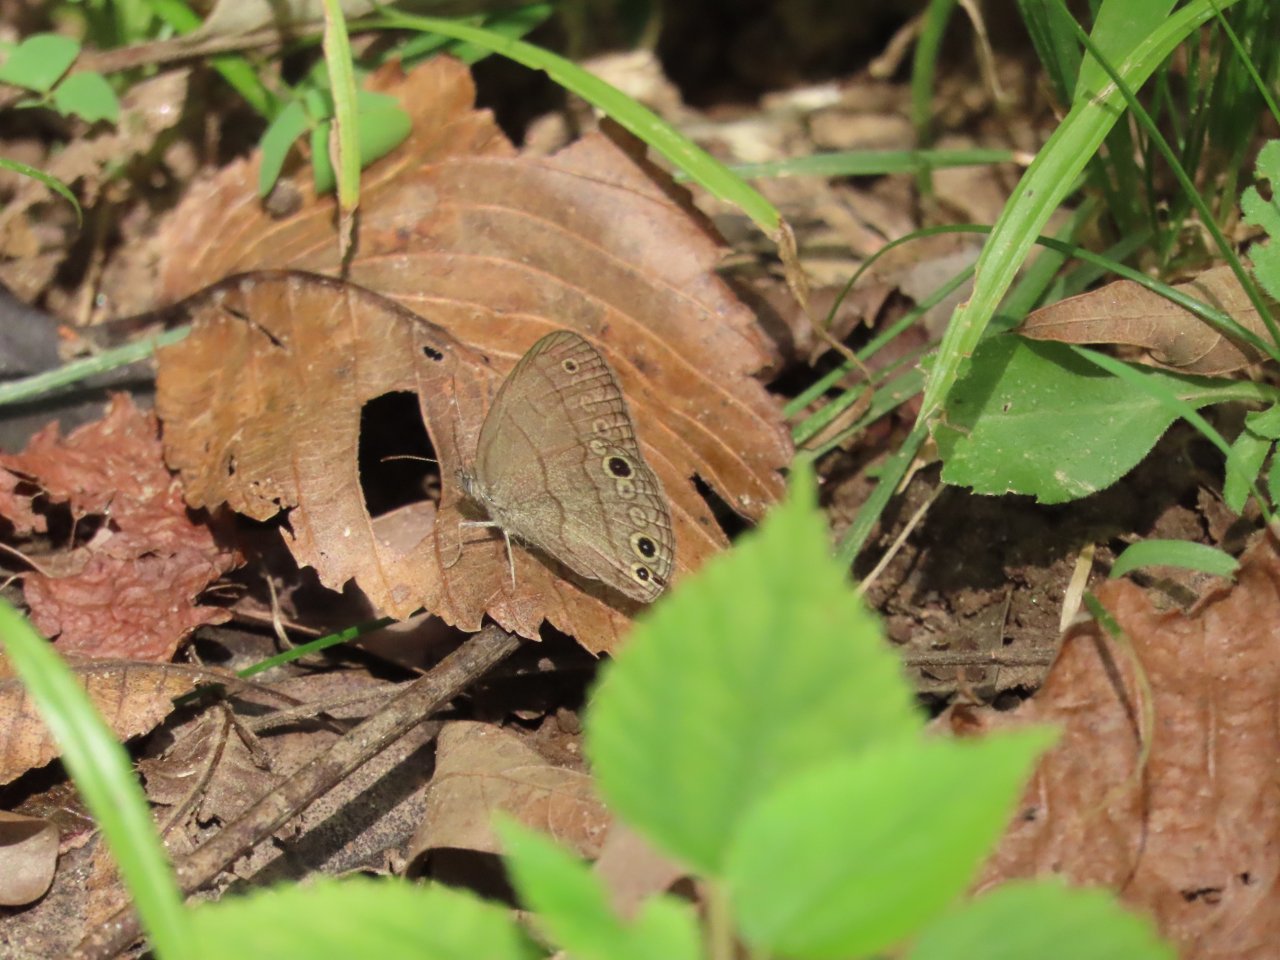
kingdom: Animalia
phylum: Arthropoda
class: Insecta
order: Lepidoptera
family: Nymphalidae
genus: Hermeuptychia
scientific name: Hermeuptychia hermes
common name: Carolina Satyr
